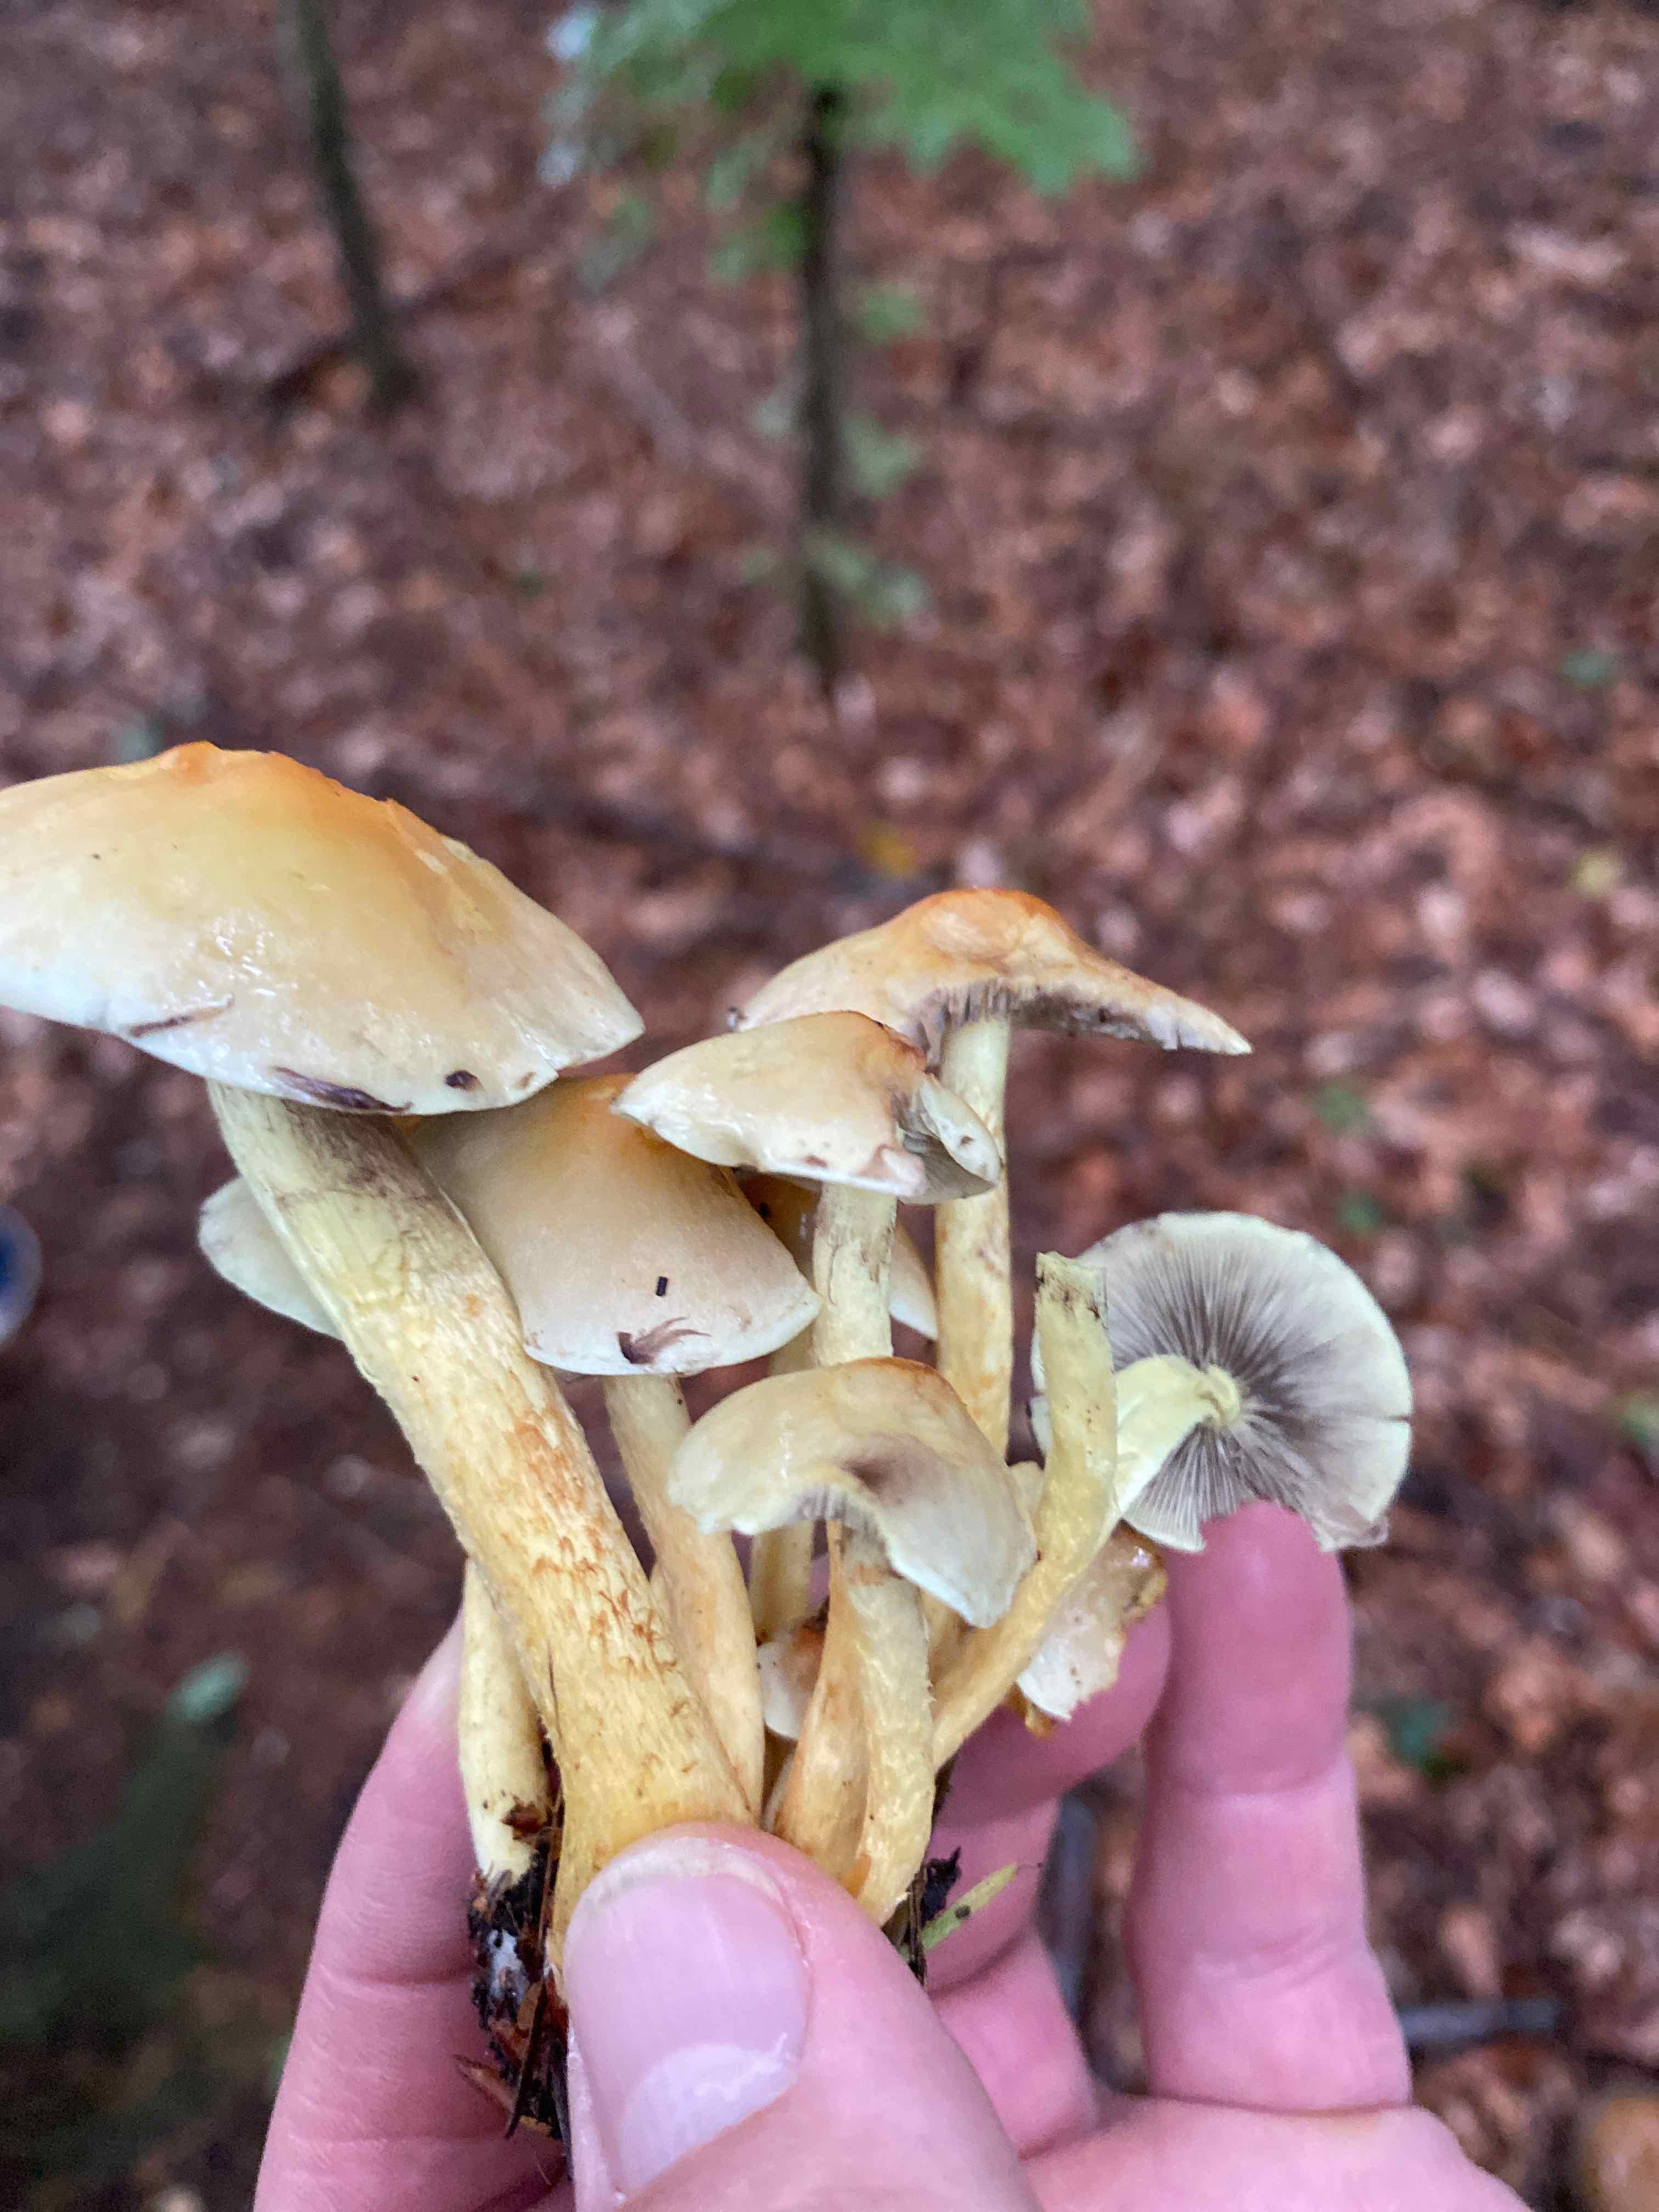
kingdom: Fungi
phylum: Basidiomycota
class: Agaricomycetes
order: Agaricales
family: Strophariaceae
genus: Hypholoma
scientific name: Hypholoma fasciculare
